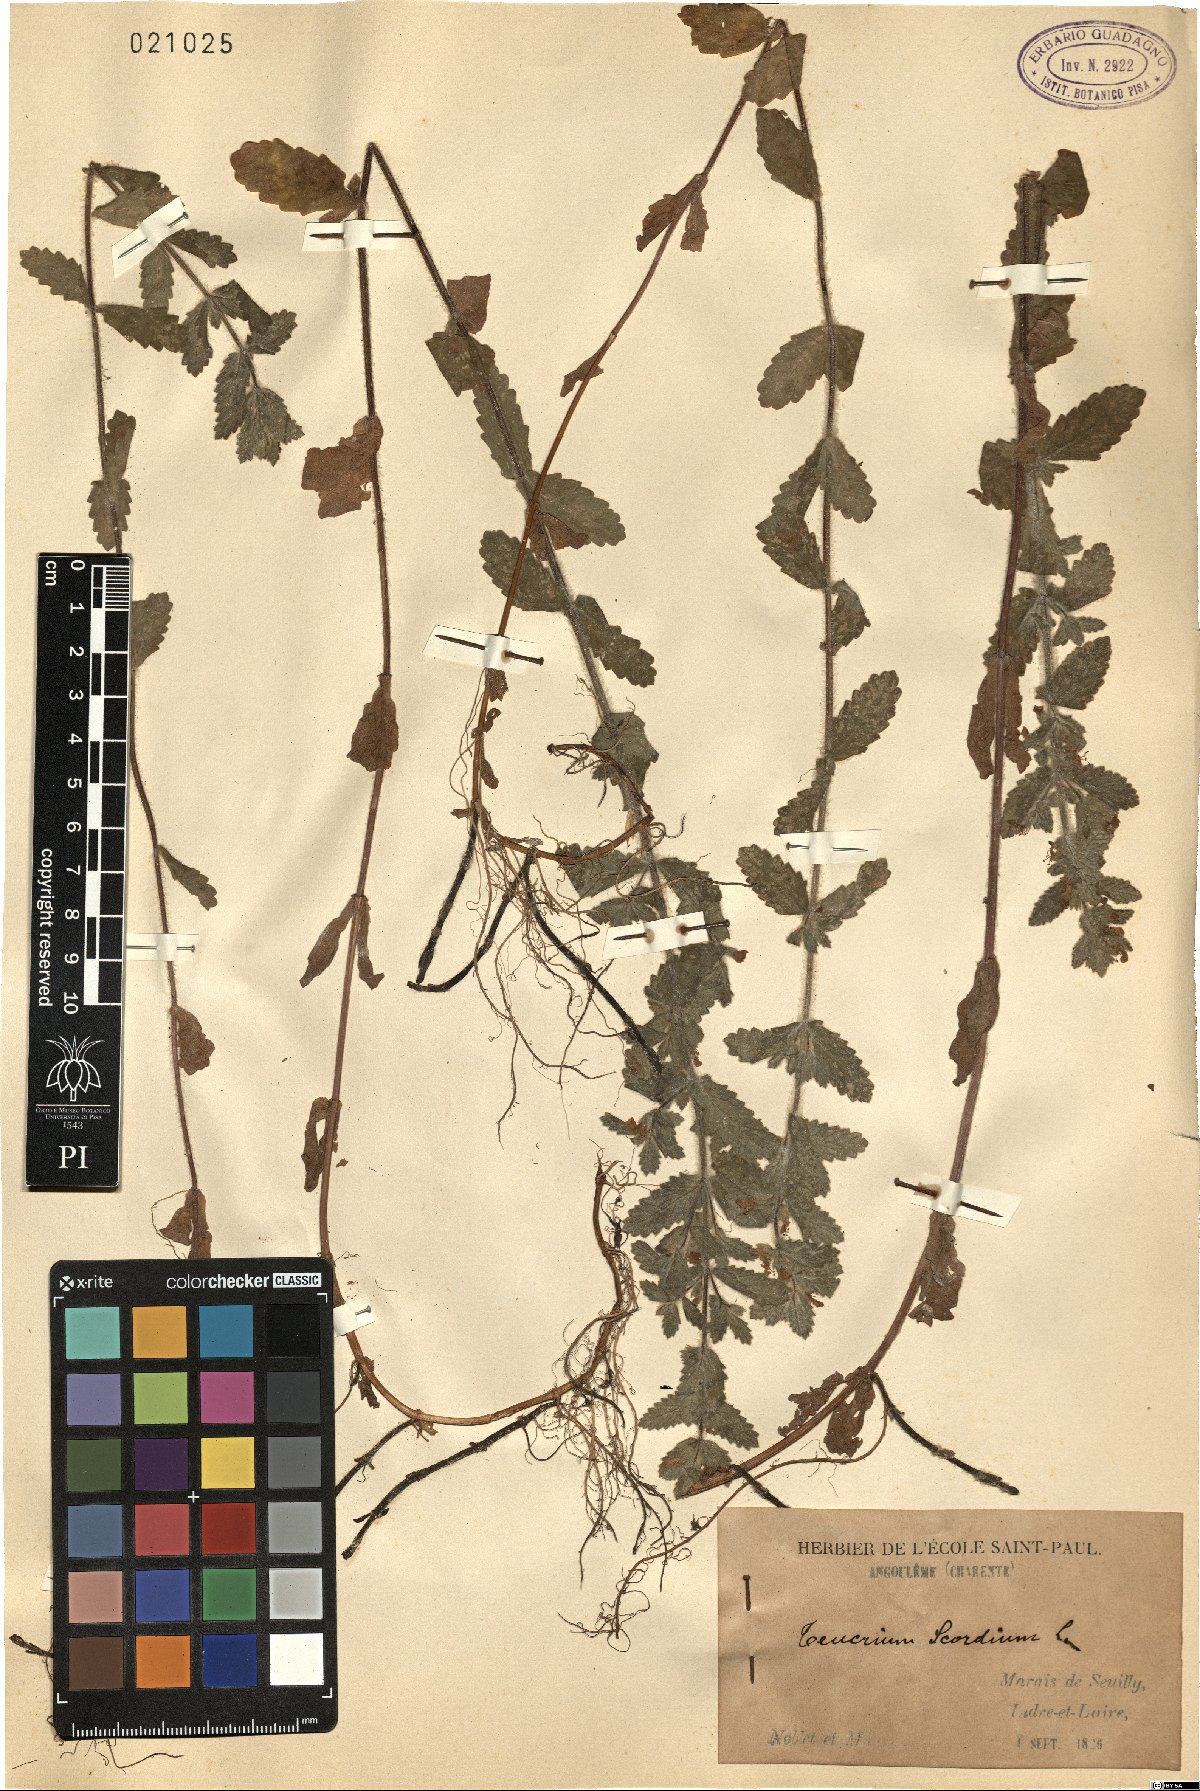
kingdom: Plantae
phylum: Tracheophyta
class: Magnoliopsida
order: Lamiales
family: Lamiaceae
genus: Teucrium
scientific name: Teucrium scordium
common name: Water germander
